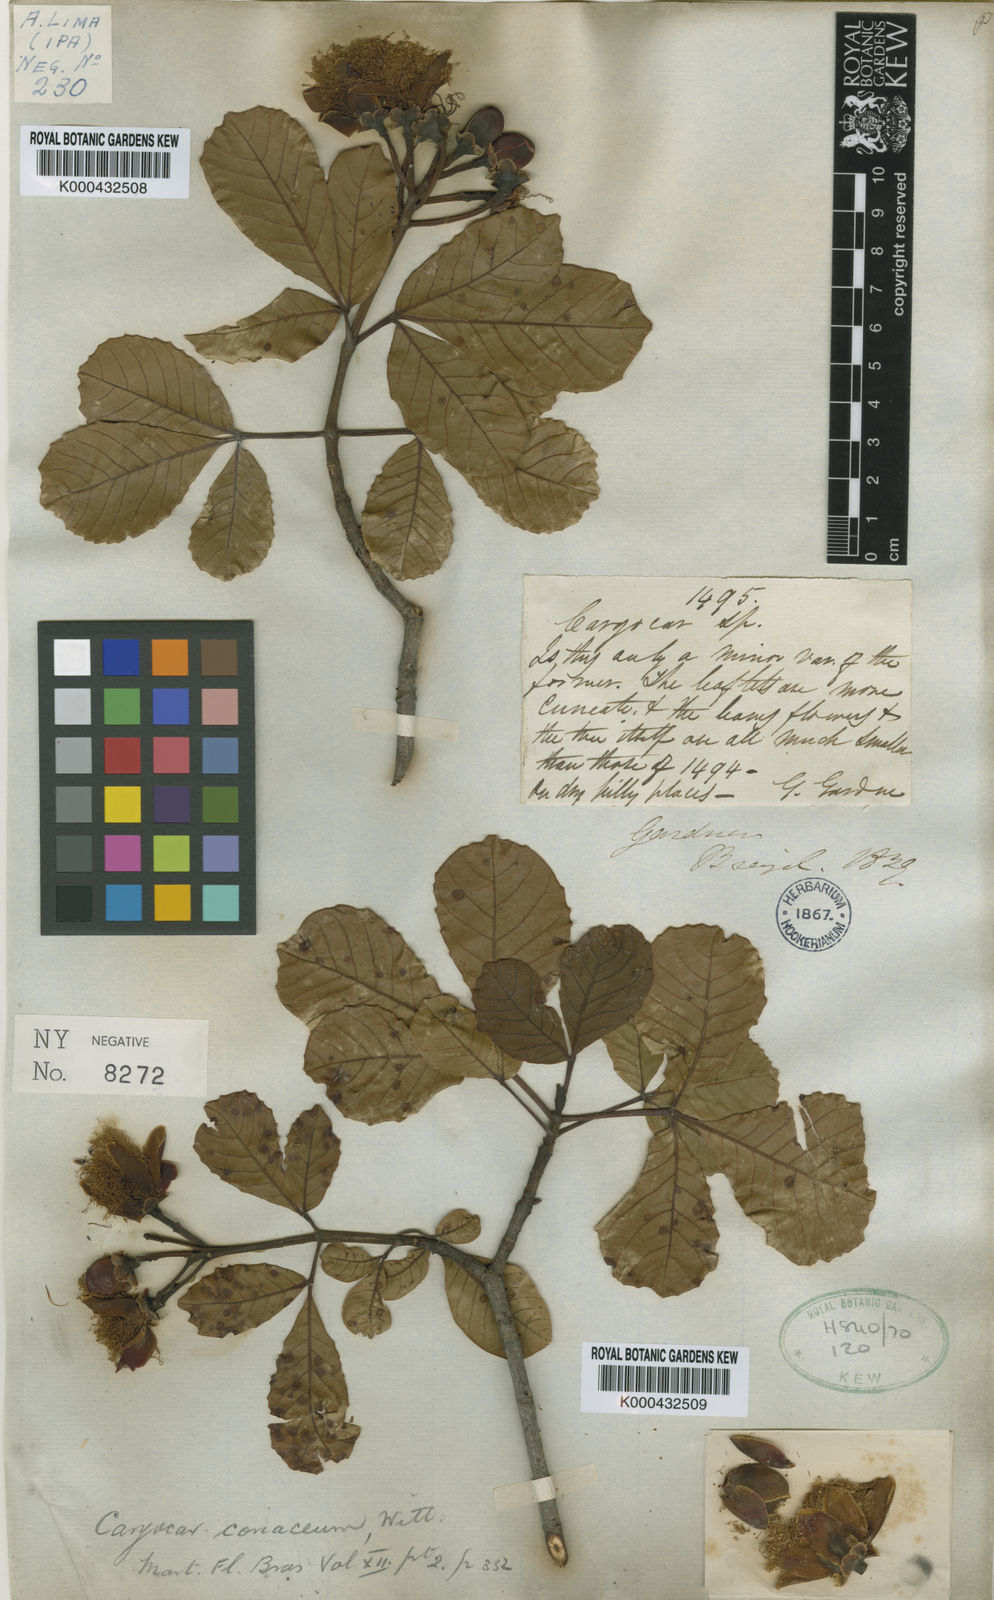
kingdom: Plantae
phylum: Tracheophyta
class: Magnoliopsida
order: Malpighiales
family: Caryocaraceae
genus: Caryocar
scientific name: Caryocar coriaceum
